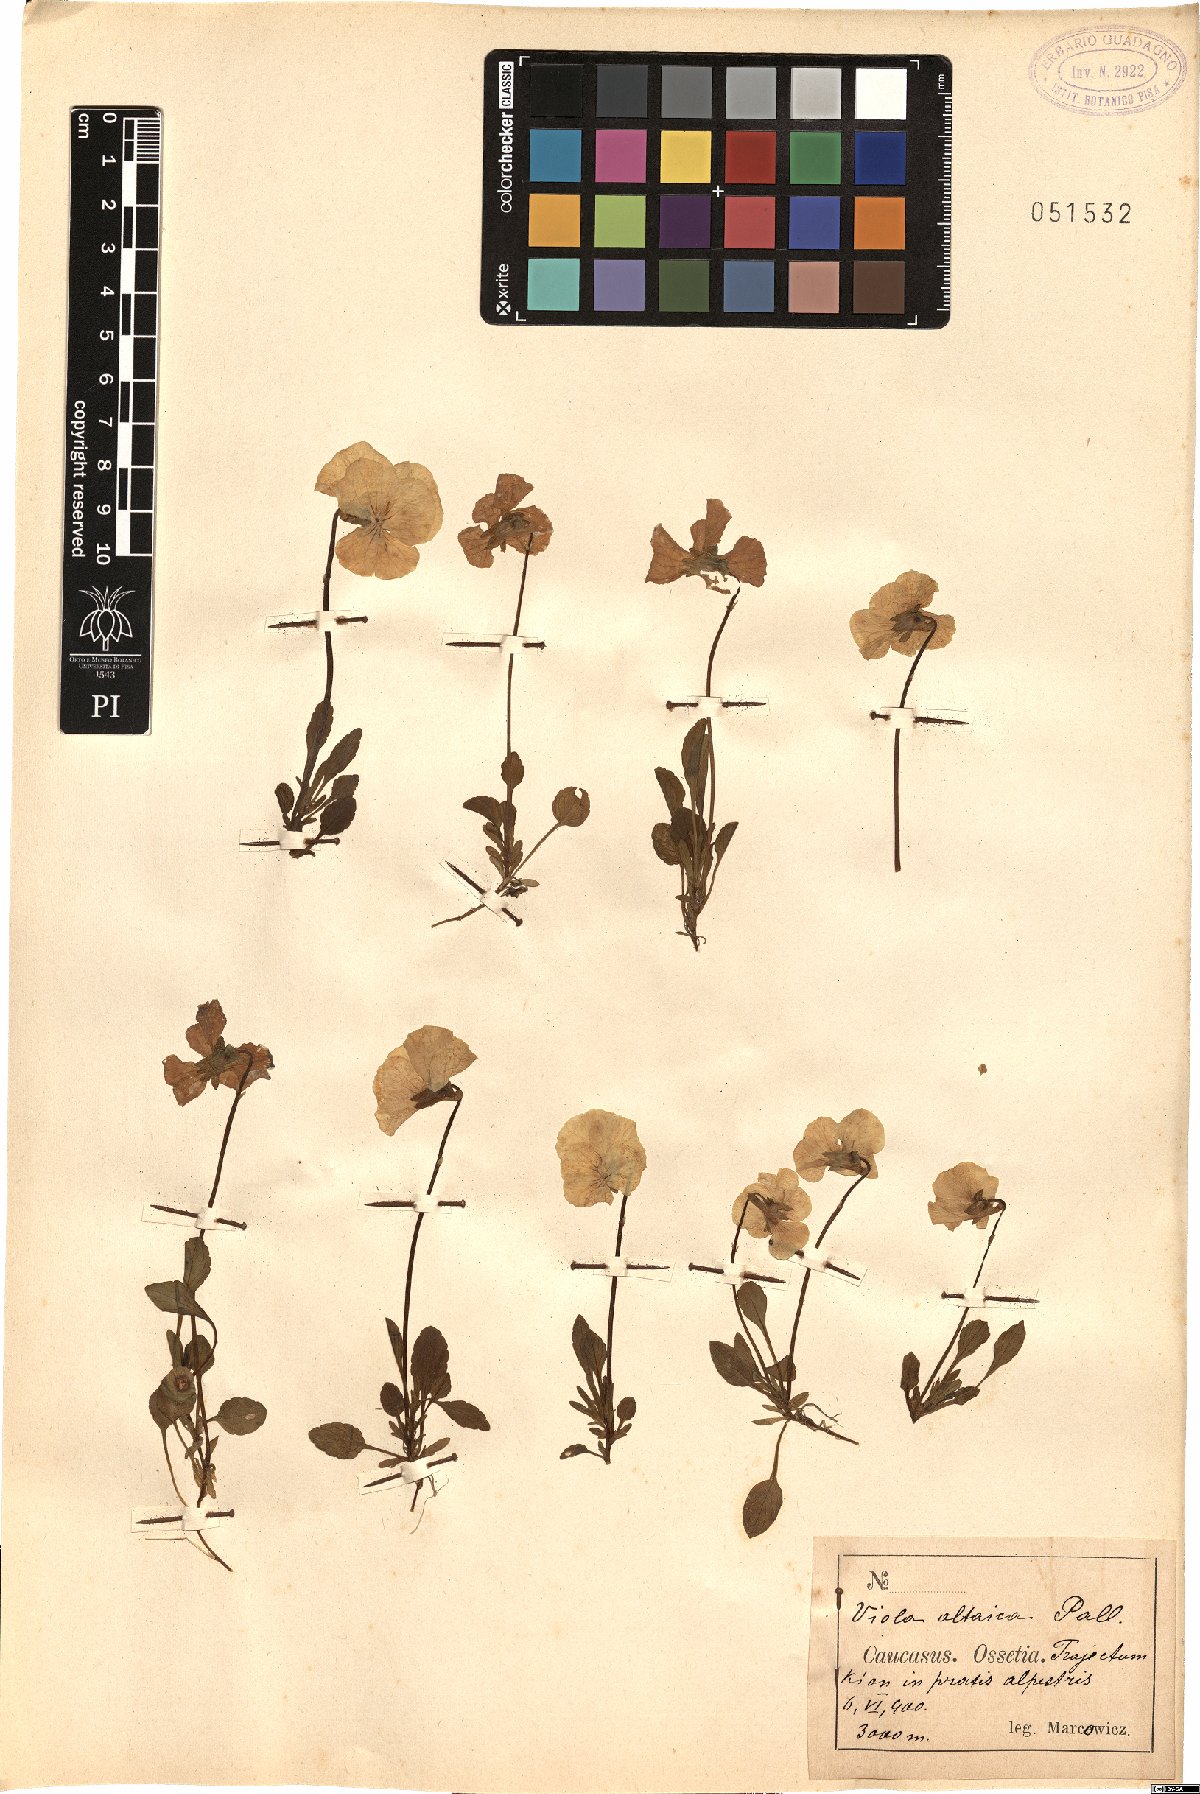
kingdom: Plantae
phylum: Tracheophyta
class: Magnoliopsida
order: Malpighiales
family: Violaceae
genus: Viola
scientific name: Viola altaica
